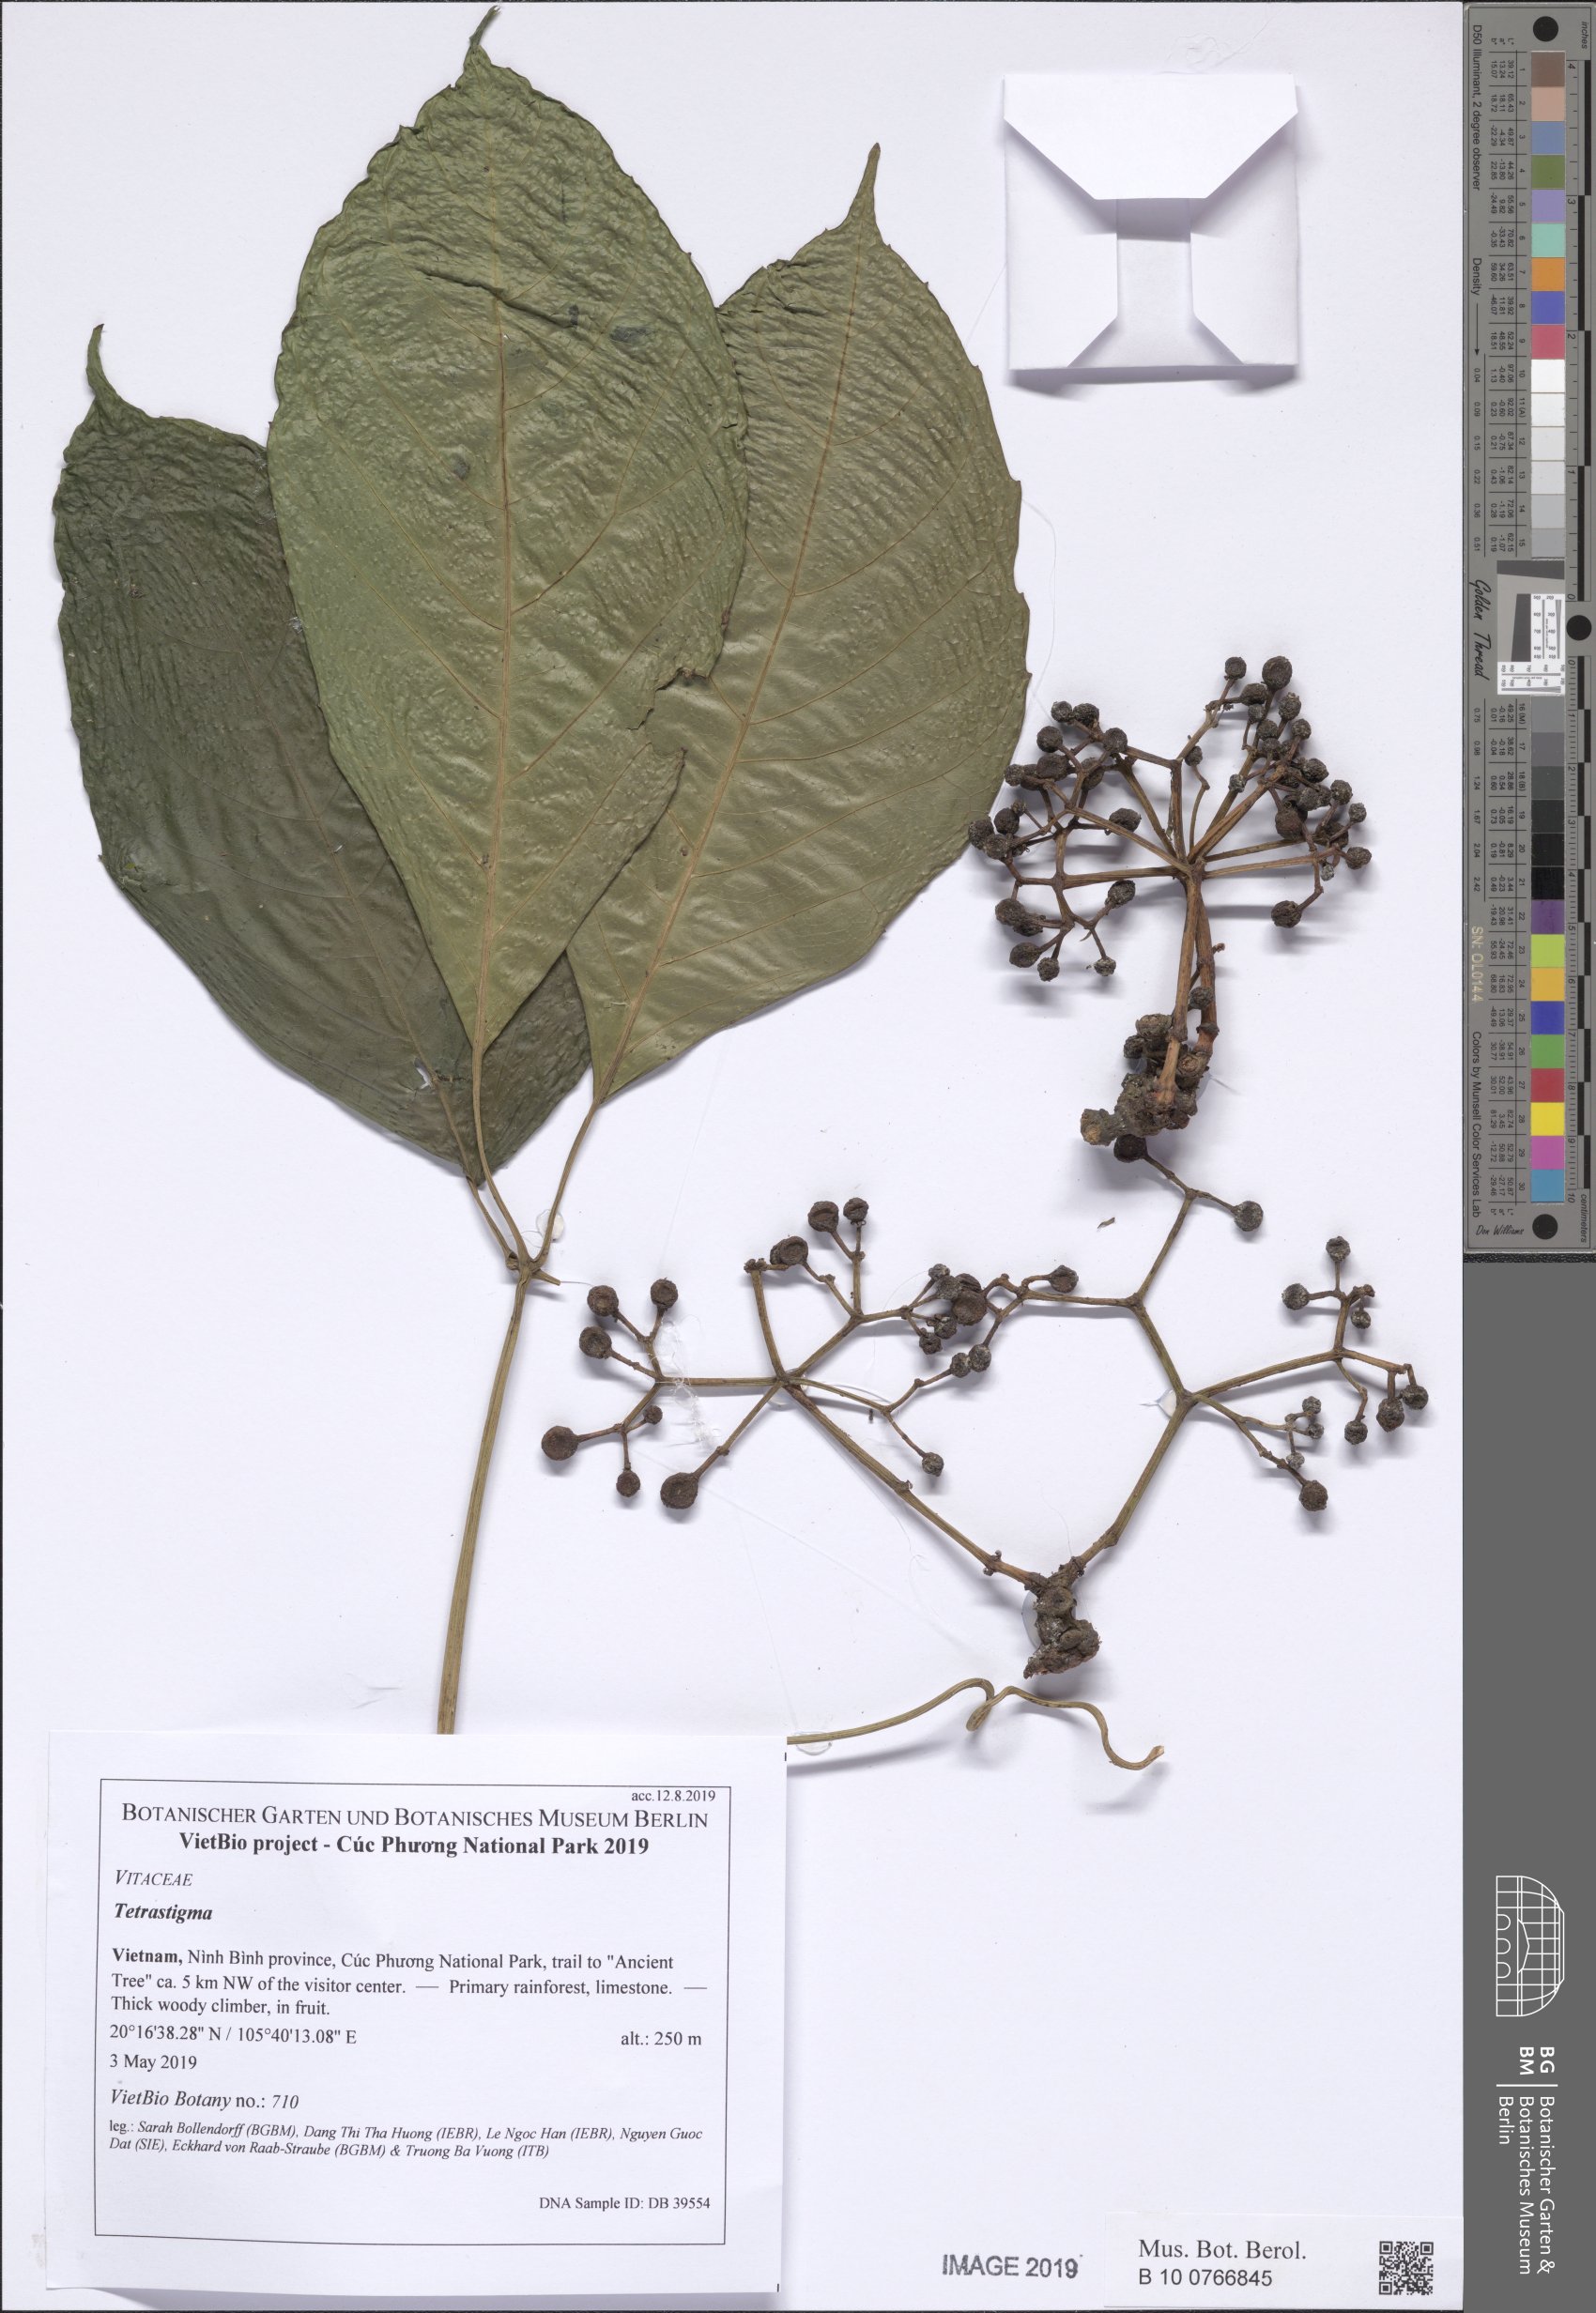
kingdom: Plantae
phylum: Tracheophyta
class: Magnoliopsida
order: Vitales
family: Vitaceae
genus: Tetrastigma
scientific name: Tetrastigma
